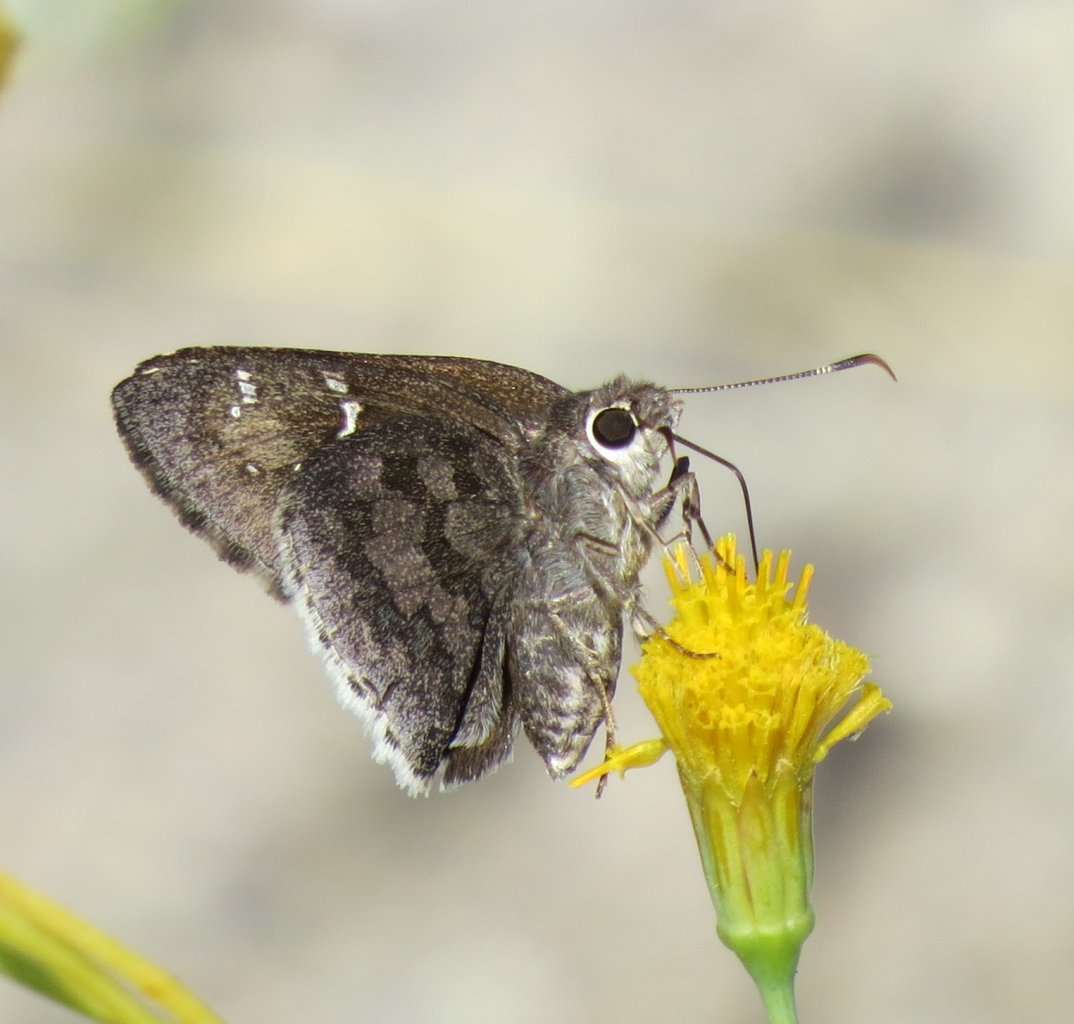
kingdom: Animalia
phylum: Arthropoda
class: Insecta
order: Lepidoptera
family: Hesperiidae
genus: Codatractus
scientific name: Codatractus arizonensis
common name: Arizona Skipper
